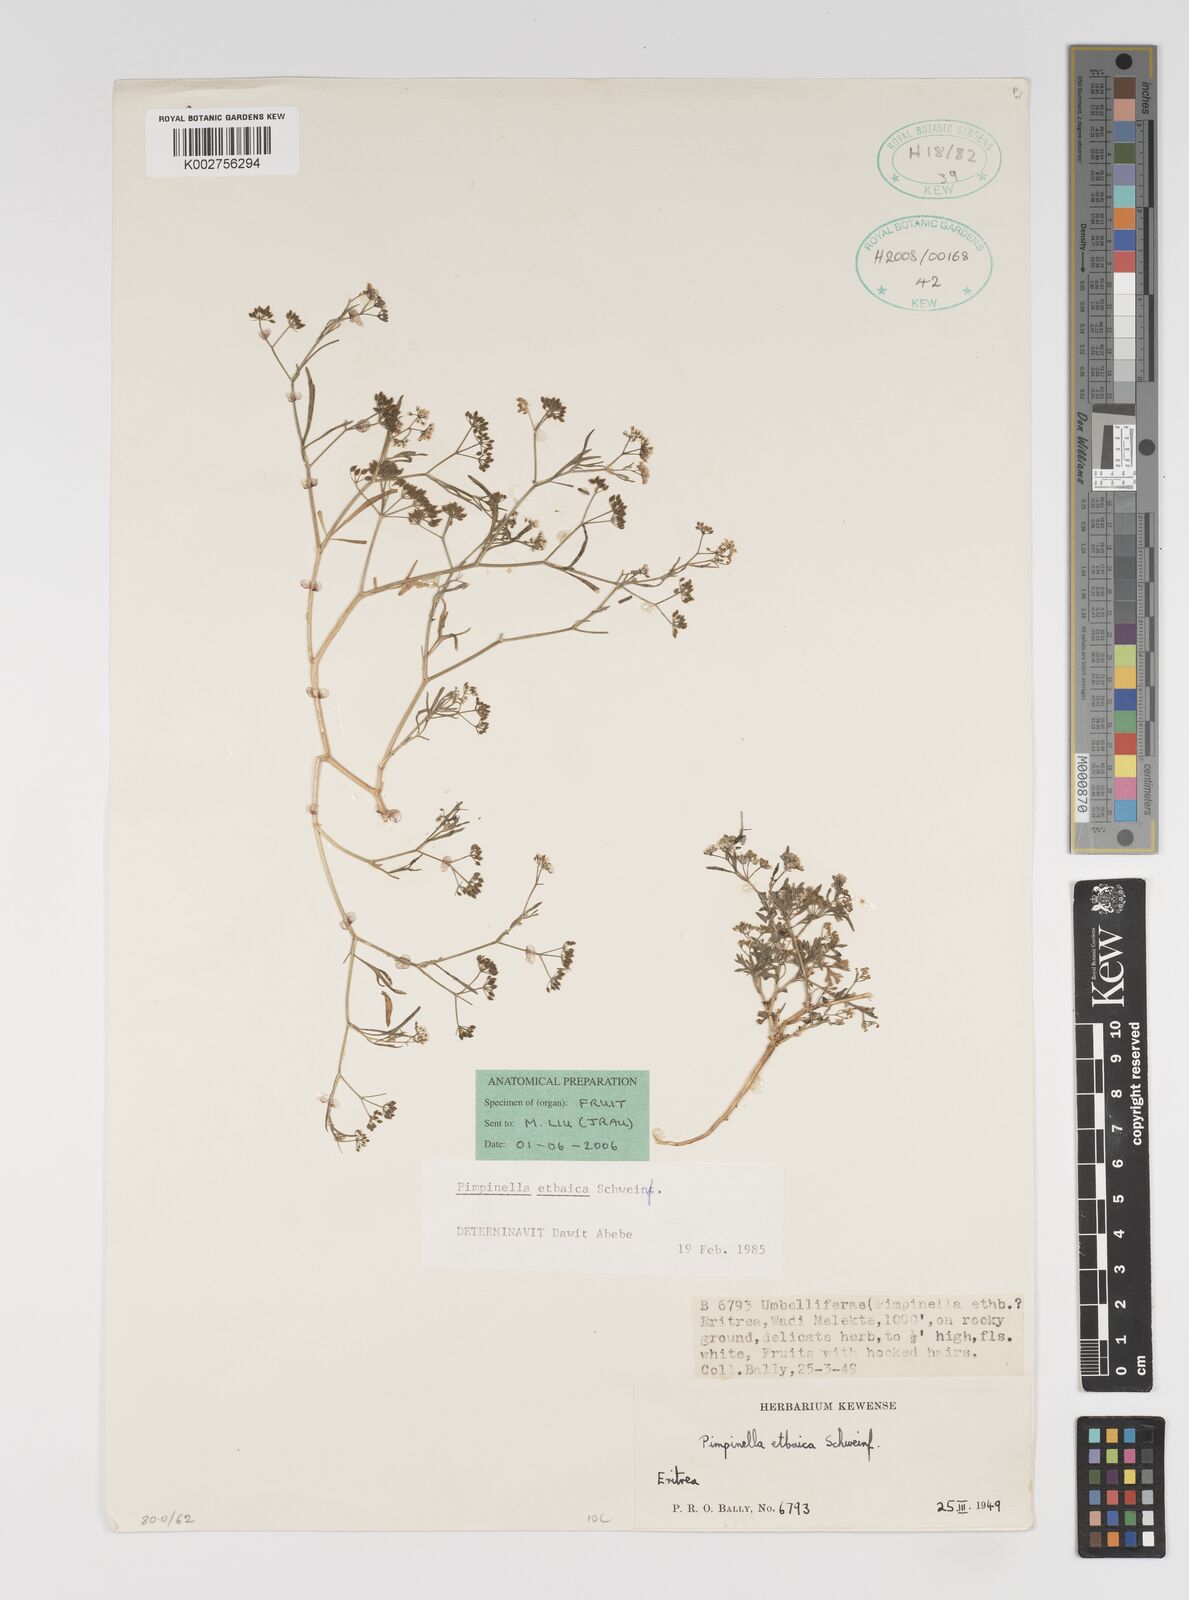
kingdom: Plantae
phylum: Tracheophyta
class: Magnoliopsida
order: Apiales
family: Apiaceae
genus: Pimpinella
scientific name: Pimpinella etbaica
